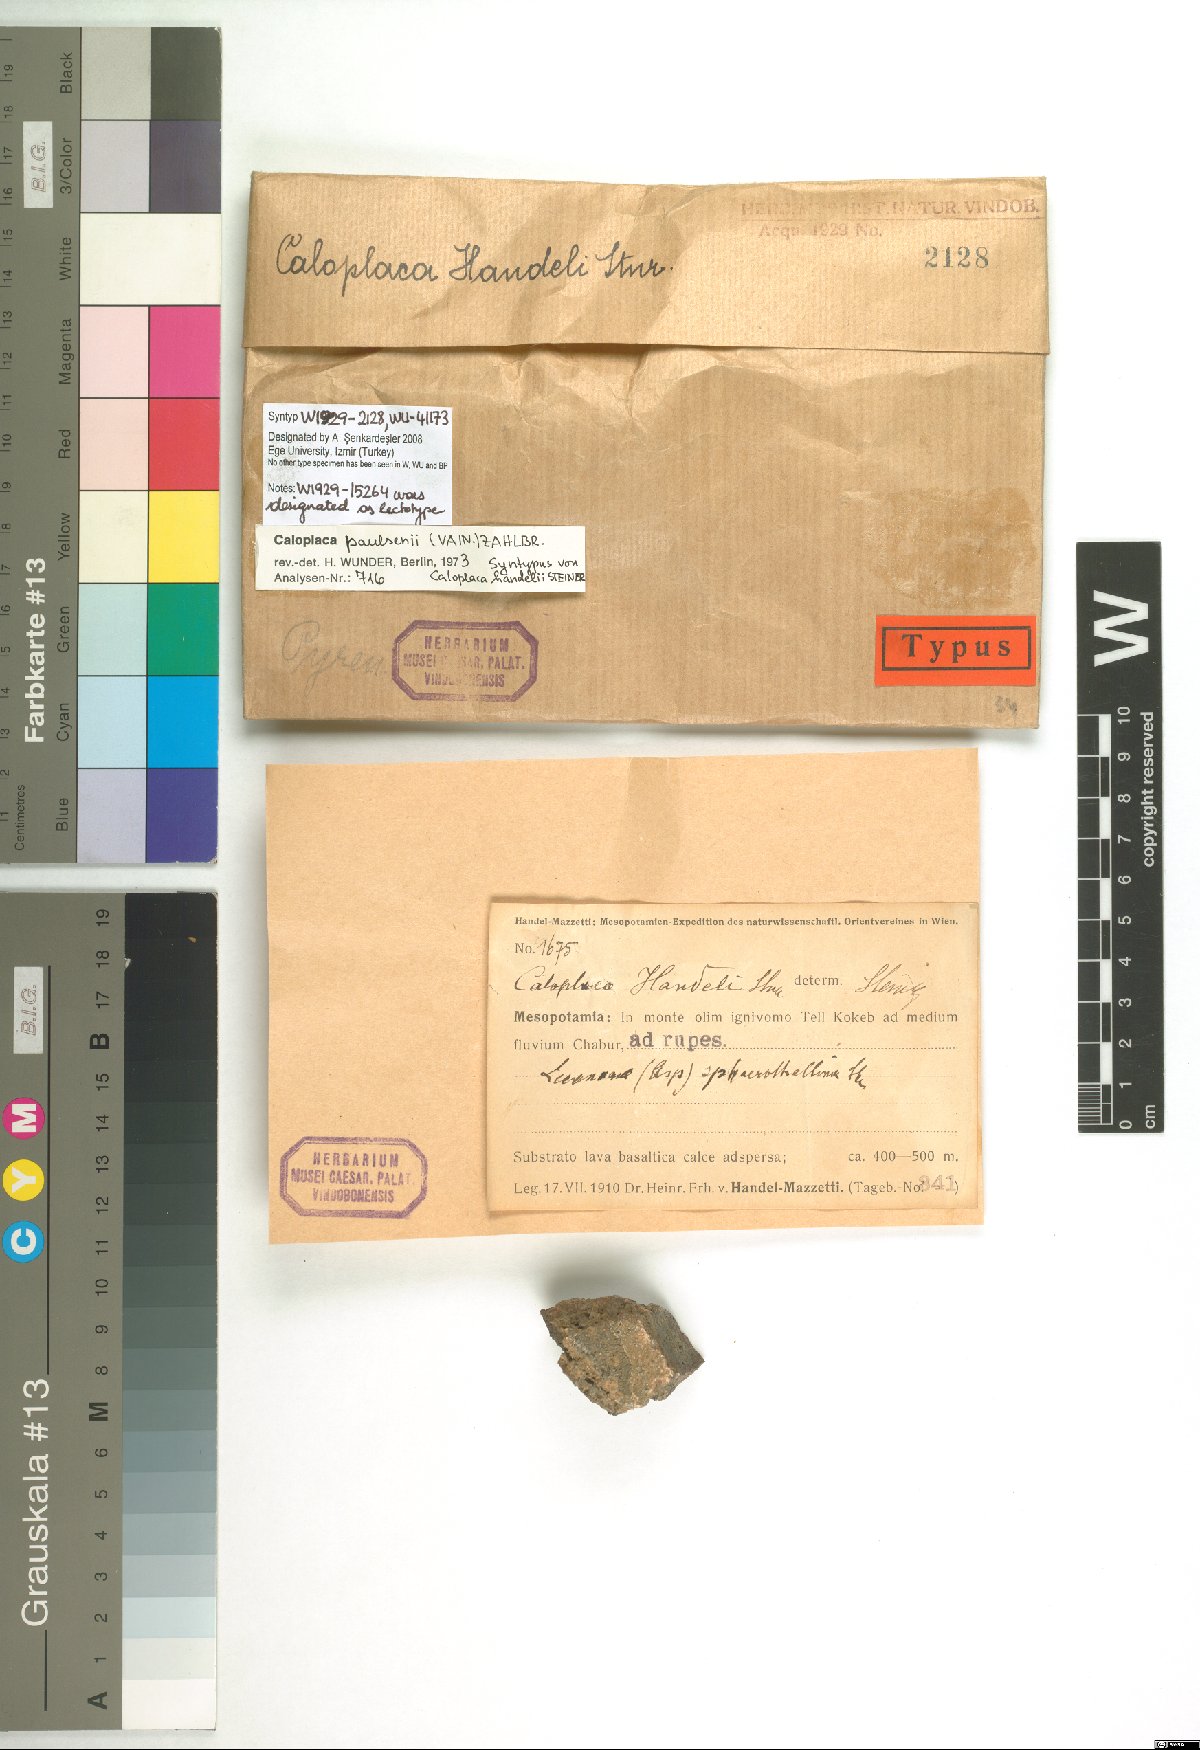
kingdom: Fungi
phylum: Ascomycota
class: Lecanoromycetes
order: Teloschistales
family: Teloschistaceae
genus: Caloplaca
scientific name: Caloplaca
